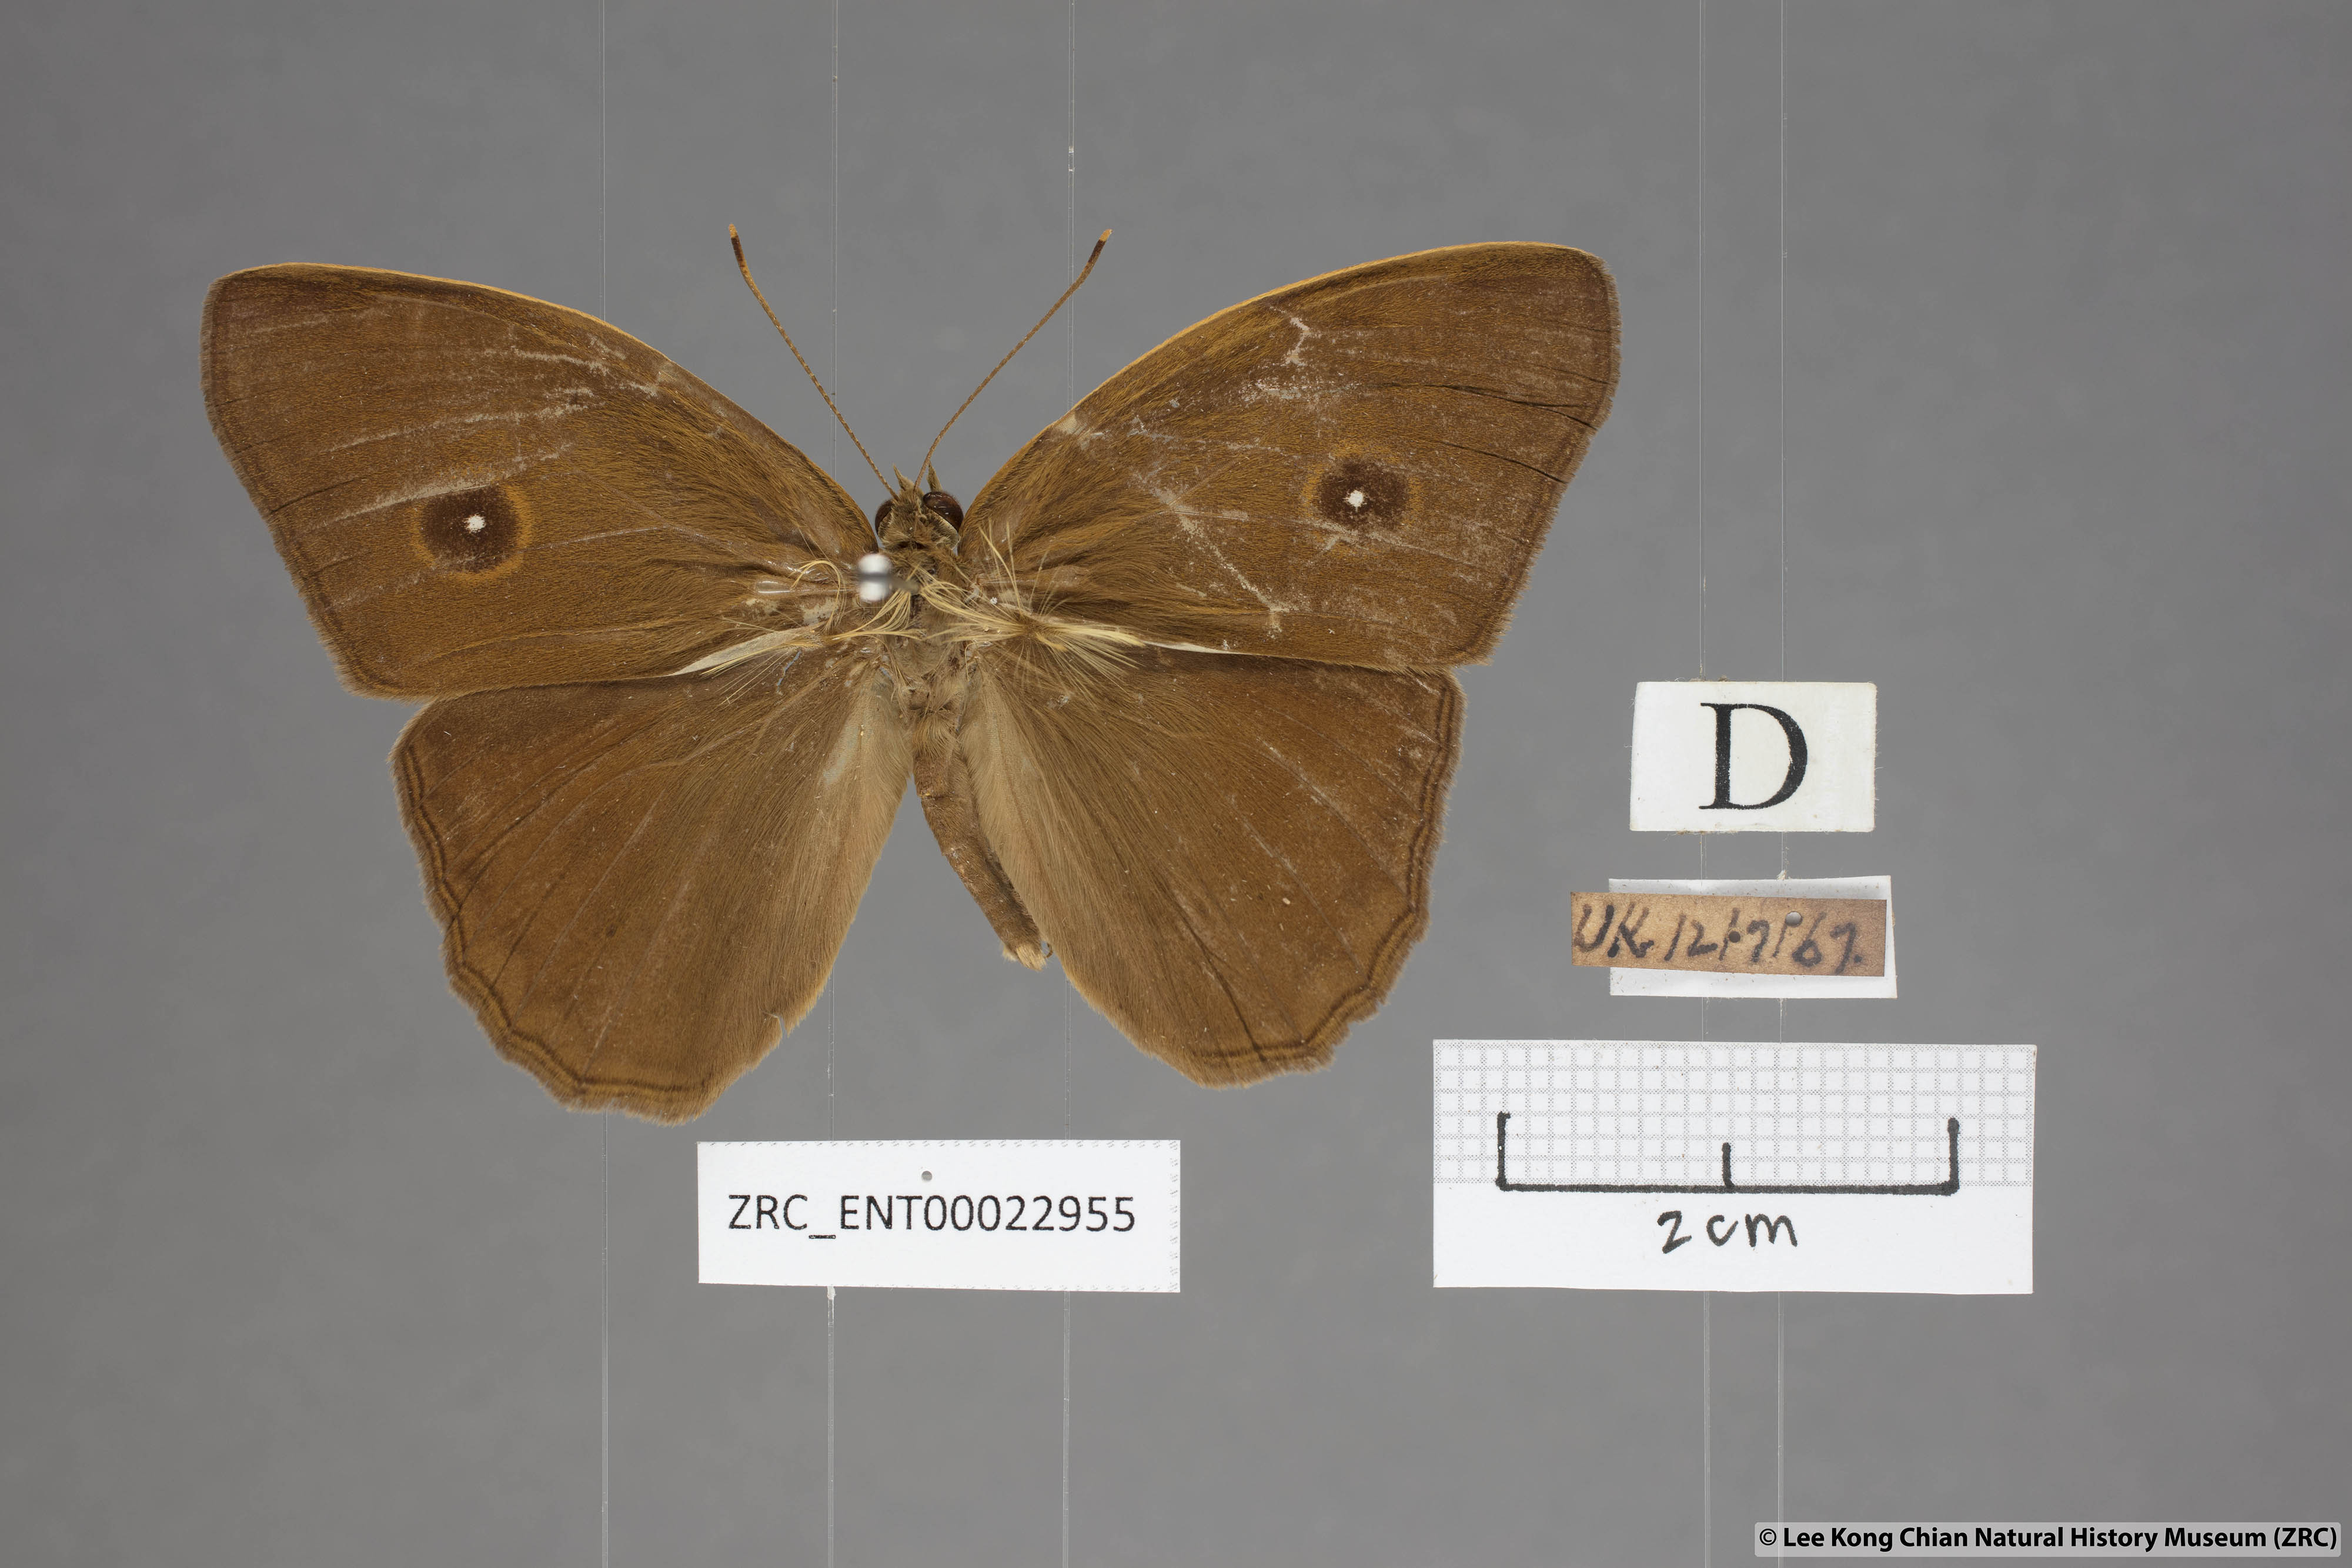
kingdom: Animalia
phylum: Arthropoda
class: Insecta
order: Lepidoptera
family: Nymphalidae
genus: Mycalesis
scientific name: Mycalesis mnasicles
